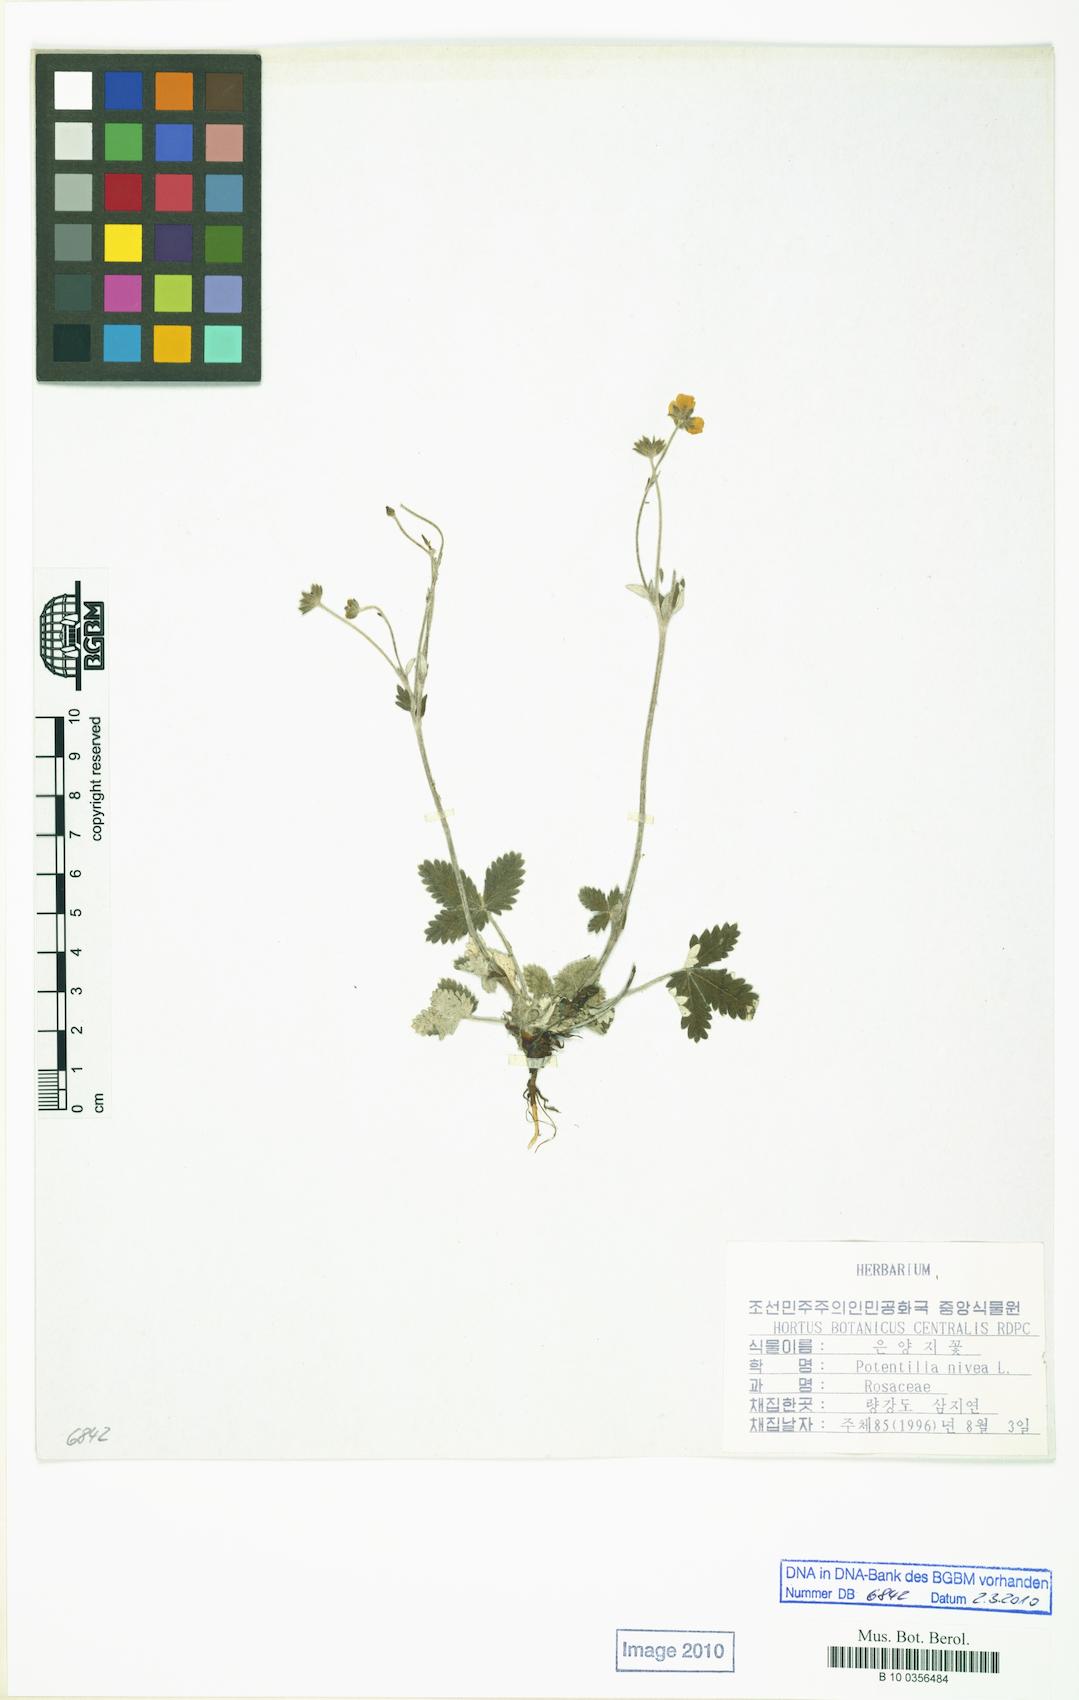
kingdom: Plantae
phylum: Tracheophyta
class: Magnoliopsida
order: Rosales
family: Rosaceae
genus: Potentilla
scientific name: Potentilla nivea
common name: Snow cinquefoil
